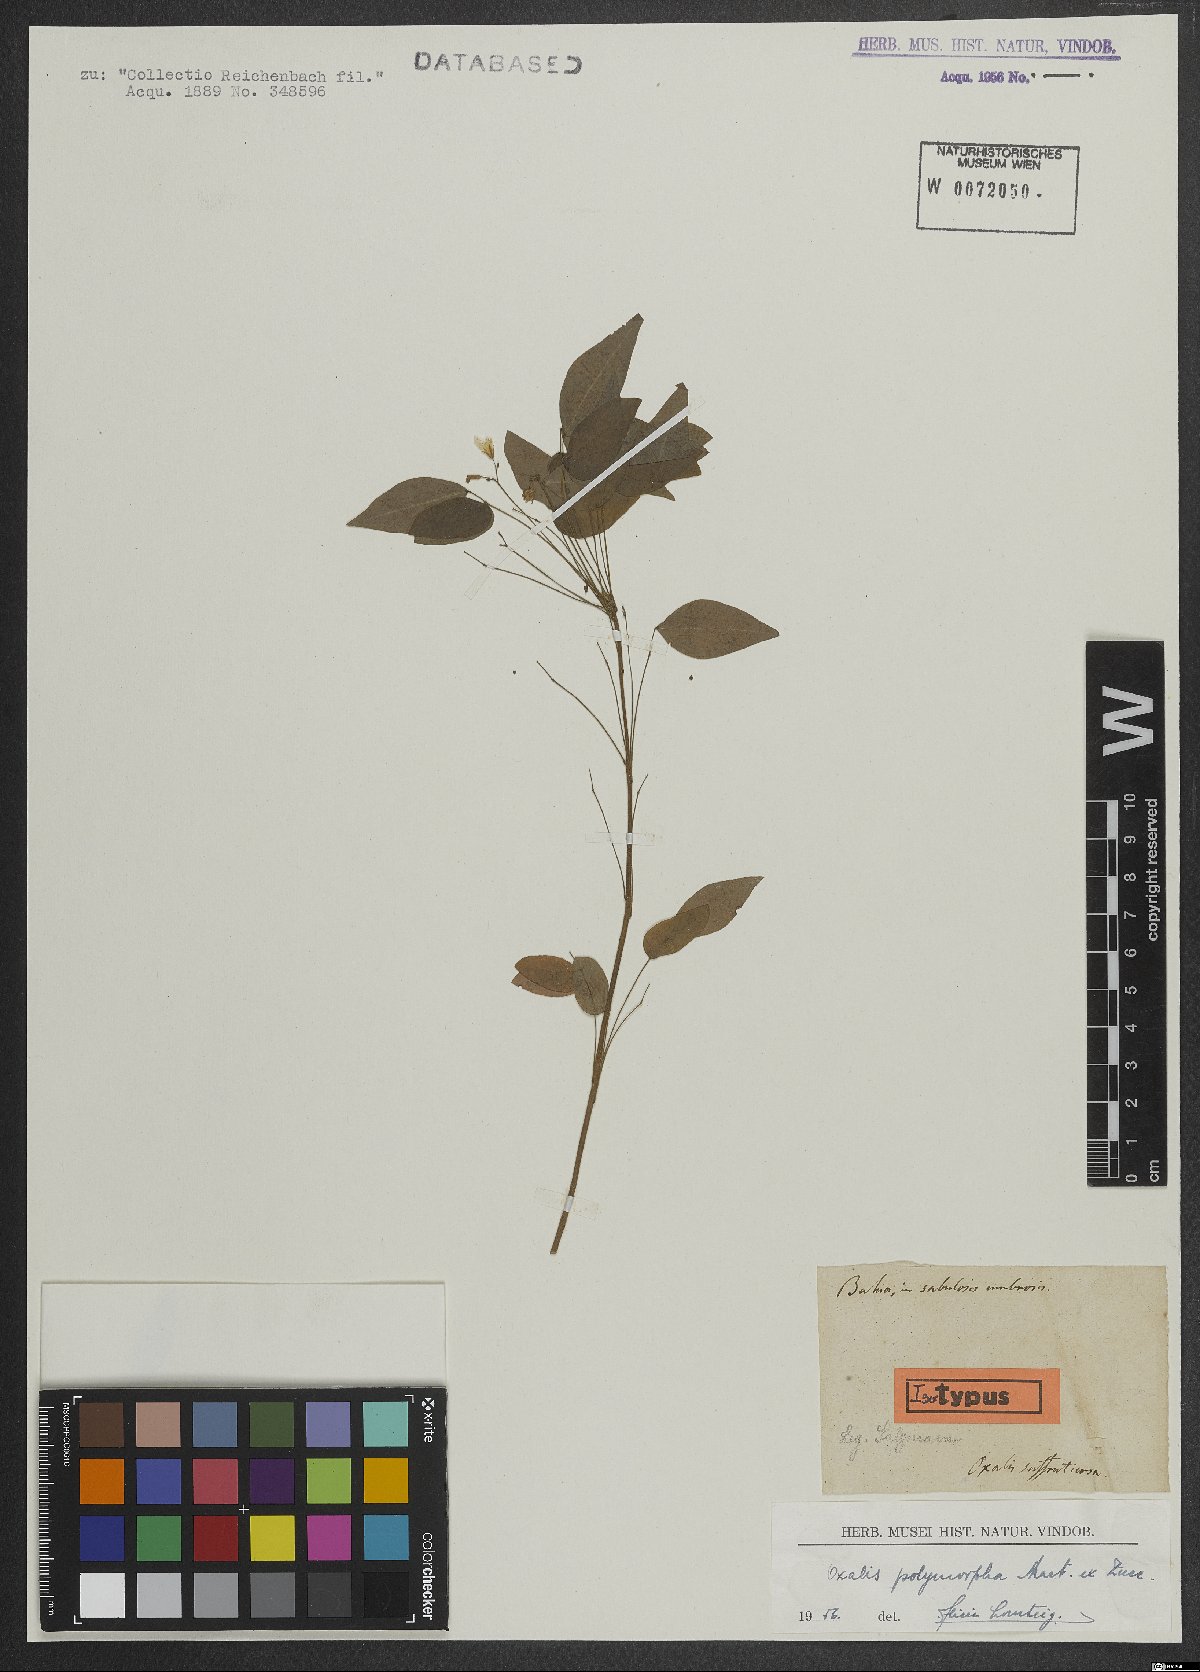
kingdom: Plantae
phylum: Tracheophyta
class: Magnoliopsida
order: Oxalidales
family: Oxalidaceae
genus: Oxalis
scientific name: Oxalis polymorpha
